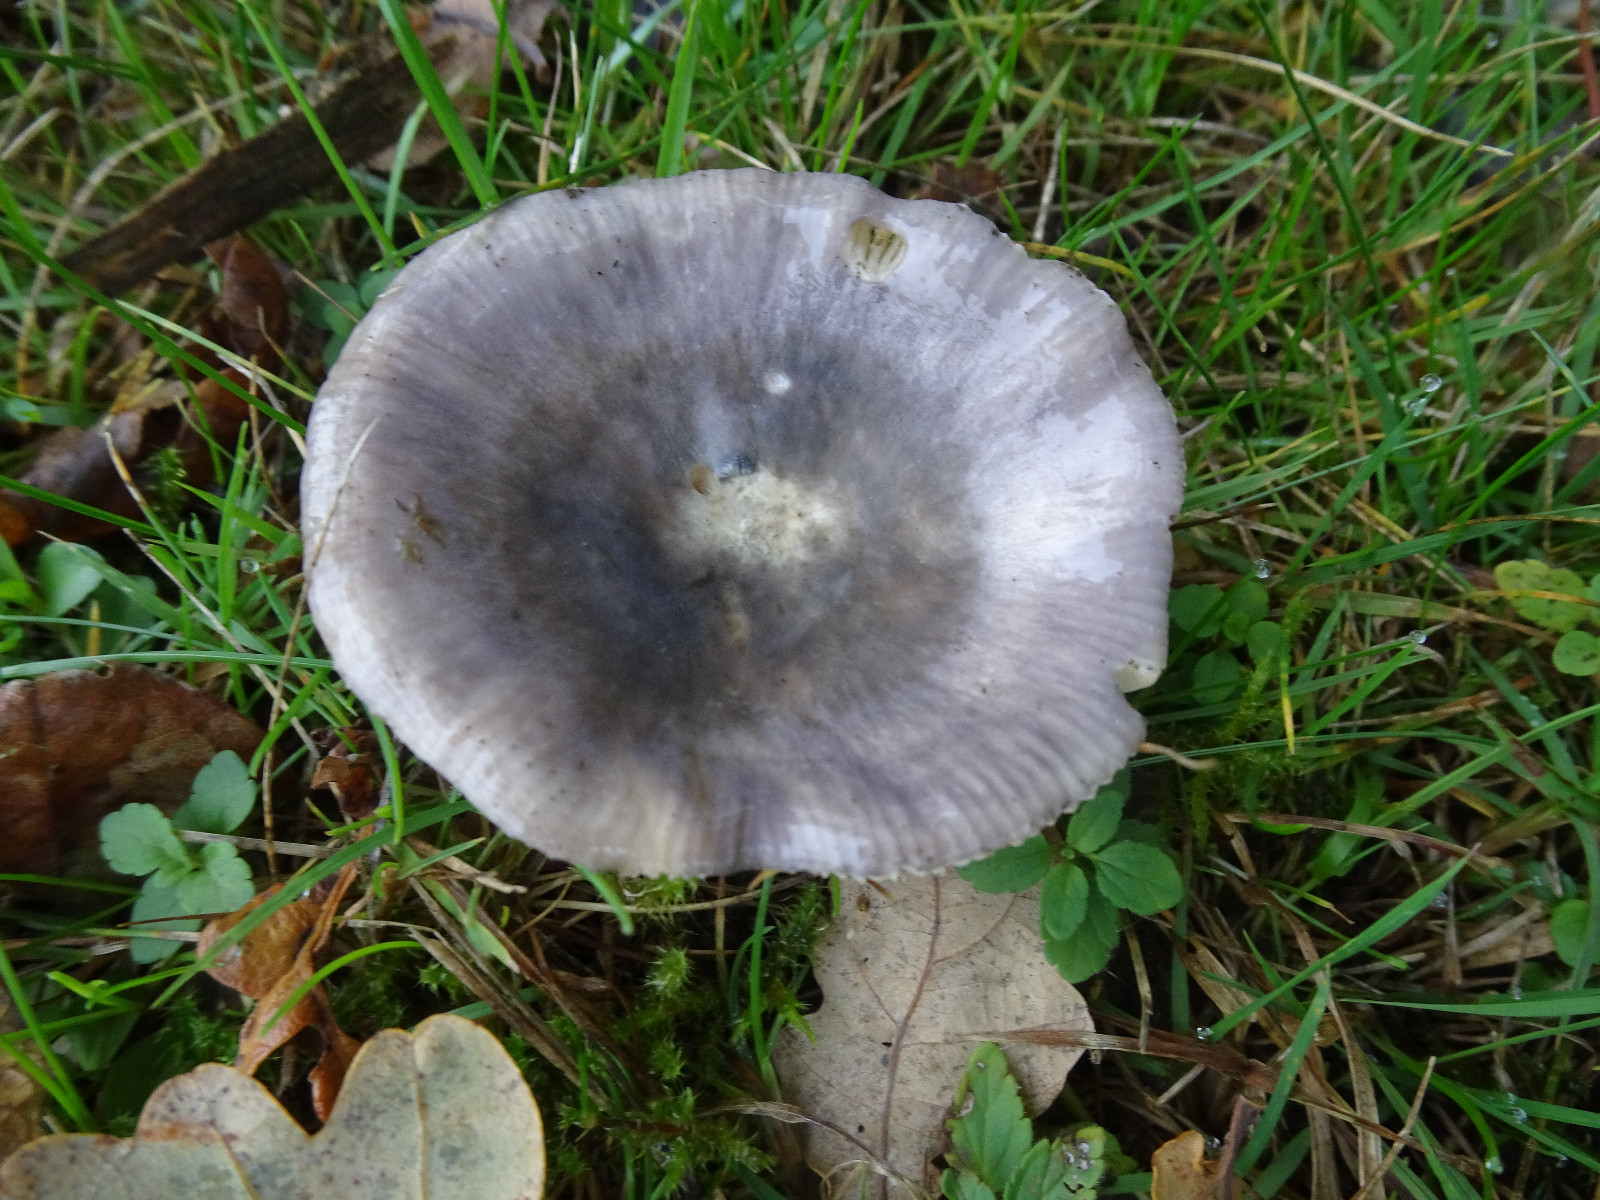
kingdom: Fungi
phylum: Basidiomycota
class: Agaricomycetes
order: Russulales
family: Russulaceae
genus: Russula
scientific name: Russula
